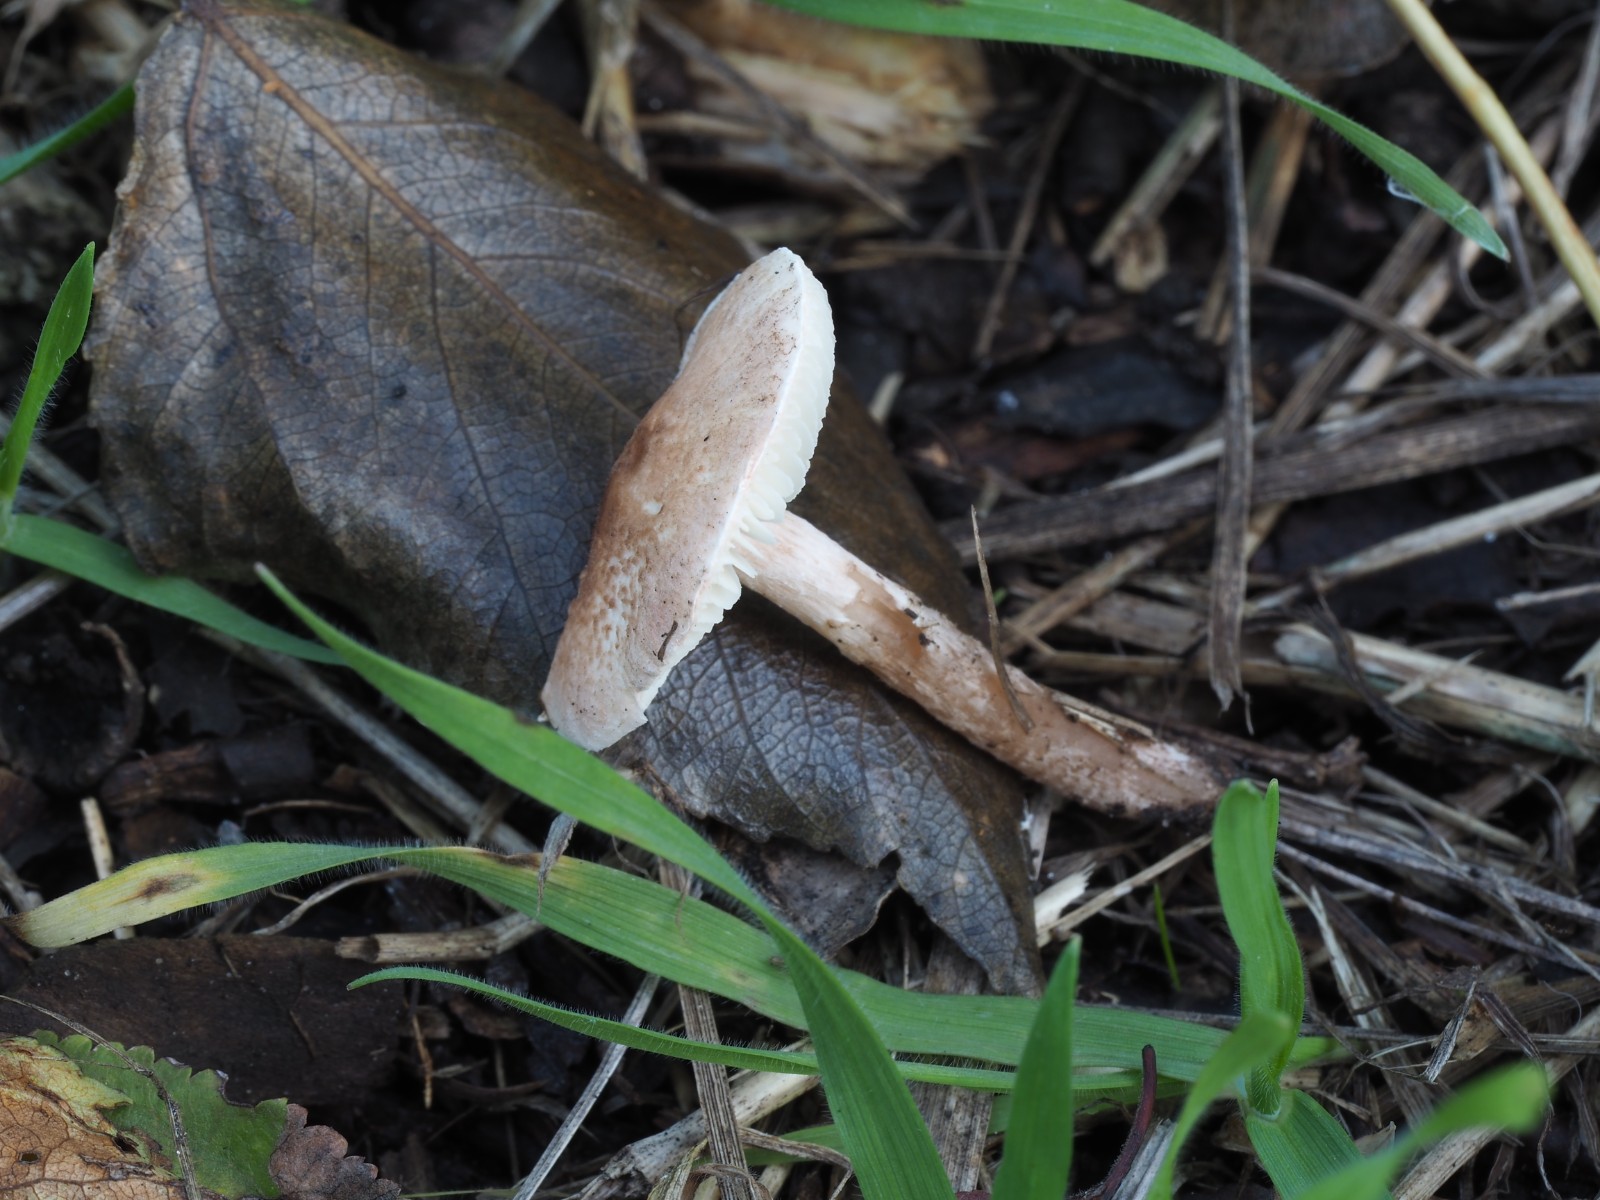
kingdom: Fungi
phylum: Basidiomycota
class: Agaricomycetes
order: Agaricales
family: Agaricaceae
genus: Lepiota
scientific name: Lepiota subincarnata
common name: kødfarvet parasolhat
